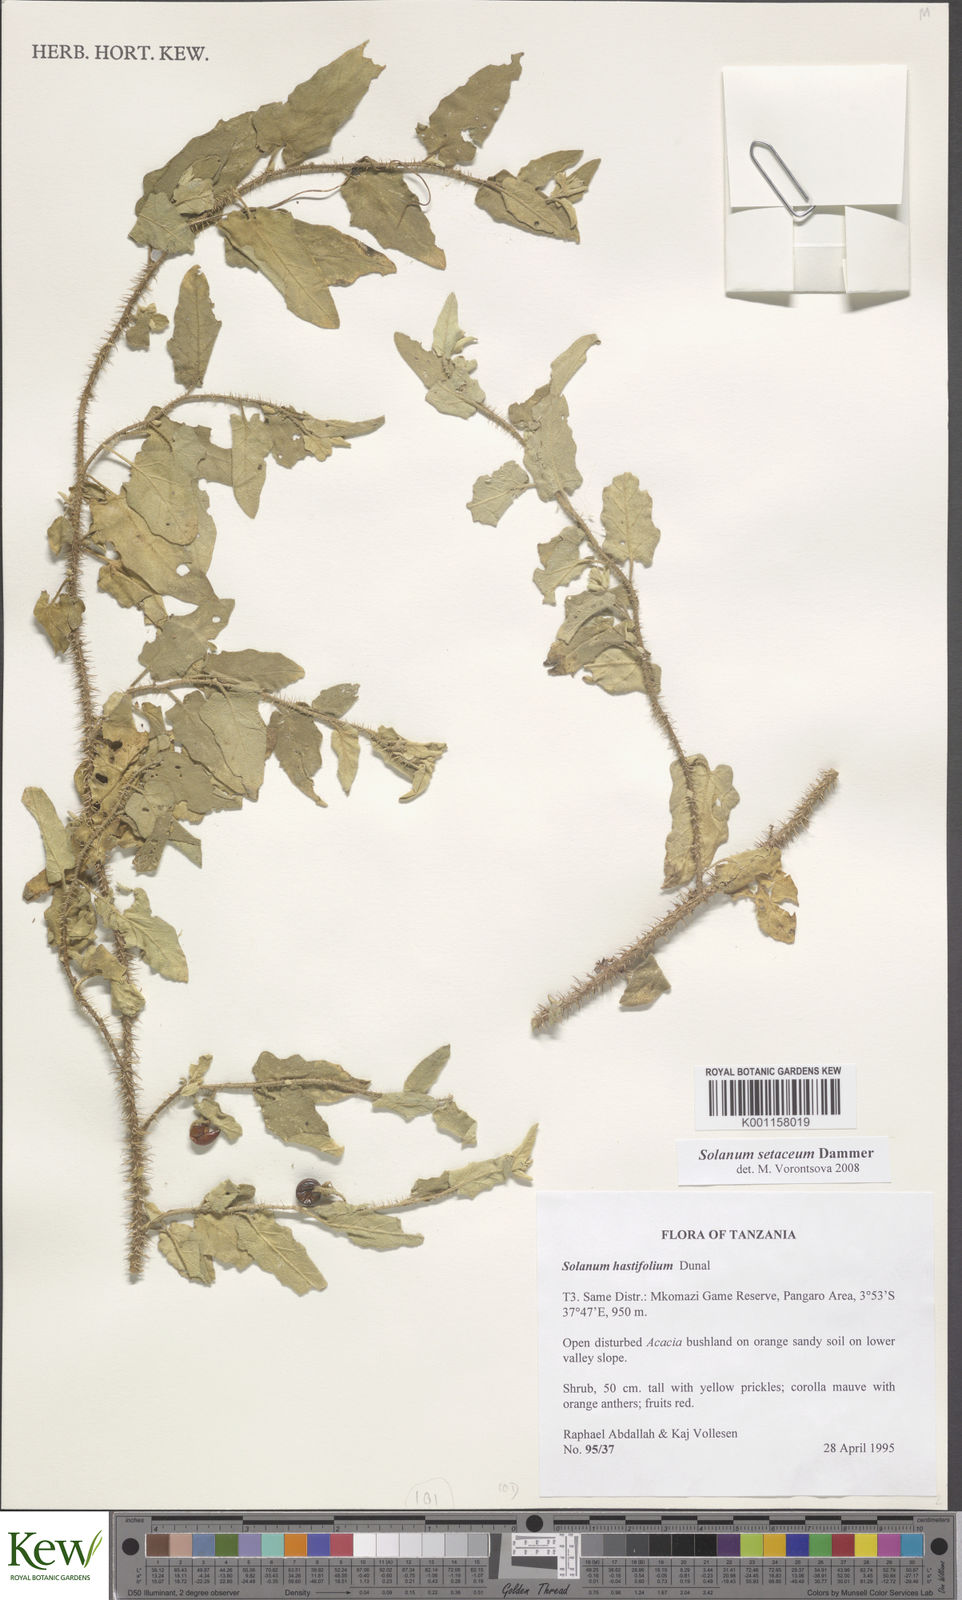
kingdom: Plantae
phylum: Tracheophyta
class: Magnoliopsida
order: Solanales
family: Solanaceae
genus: Solanum
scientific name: Solanum setaceum
